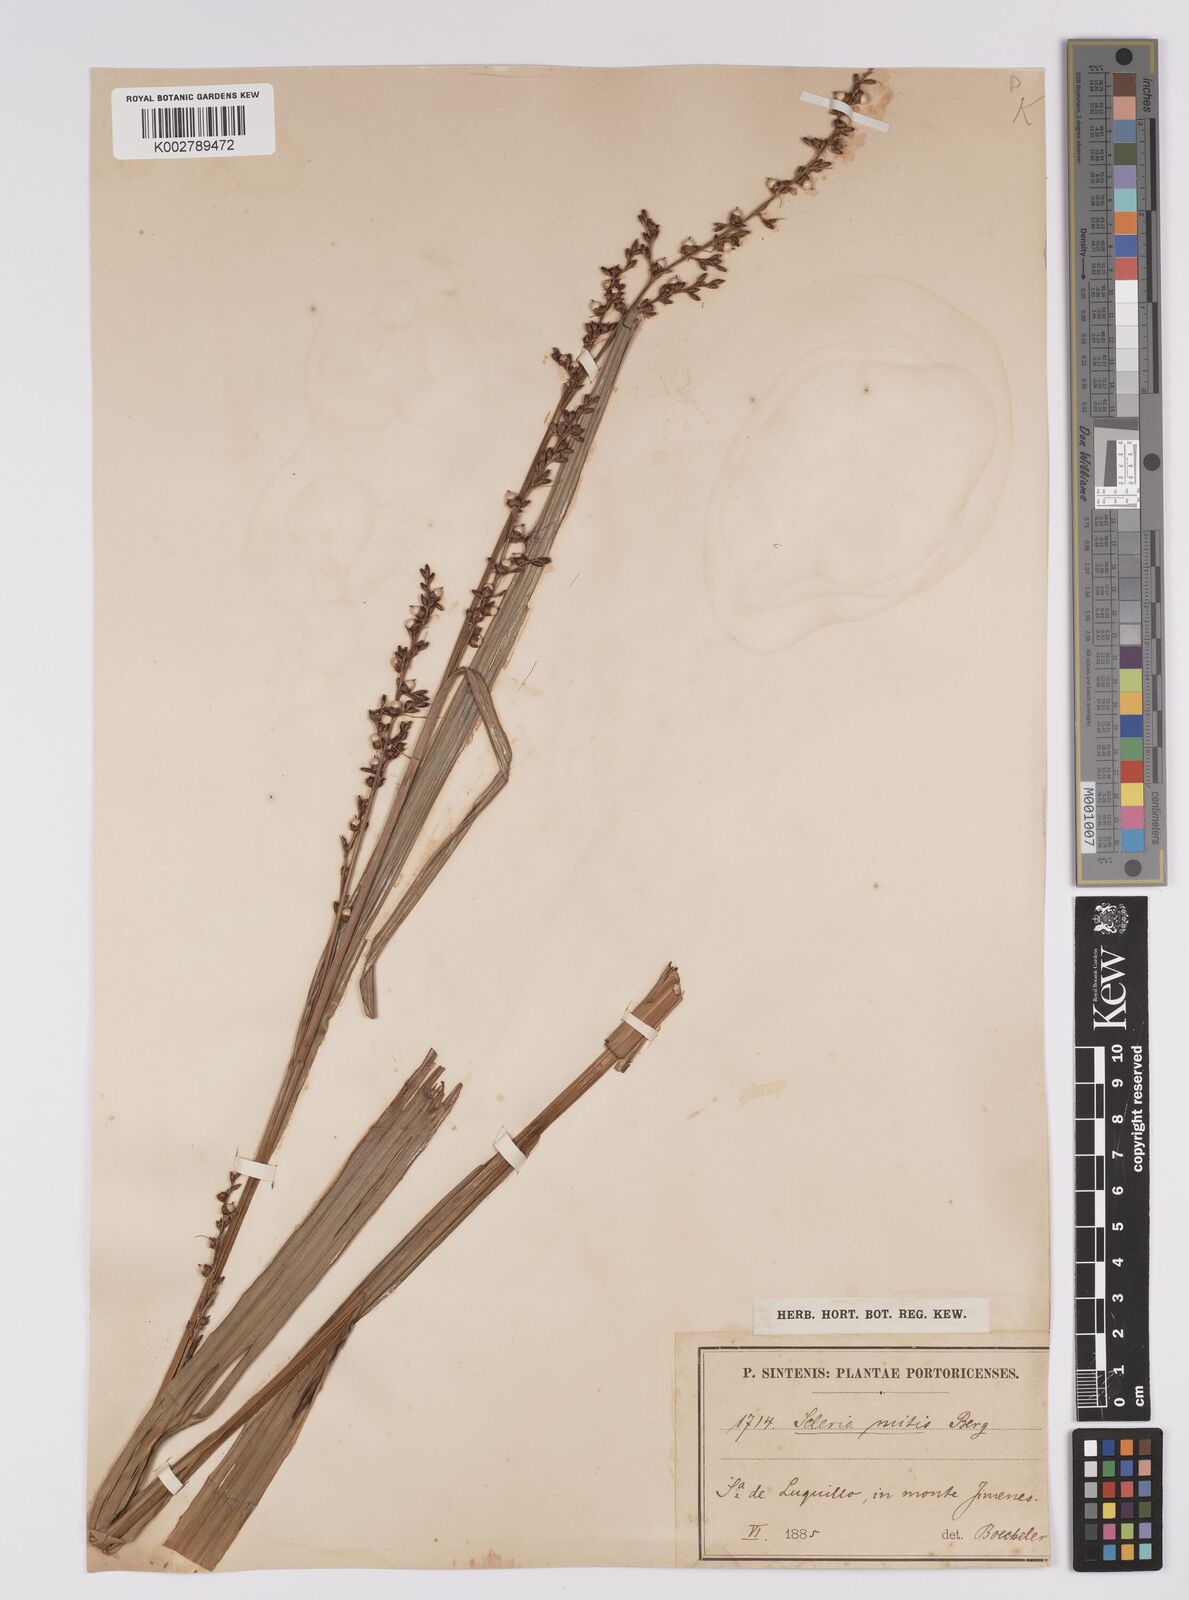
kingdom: Plantae
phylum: Tracheophyta
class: Liliopsida
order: Poales
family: Cyperaceae
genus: Scleria
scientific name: Scleria mitis
